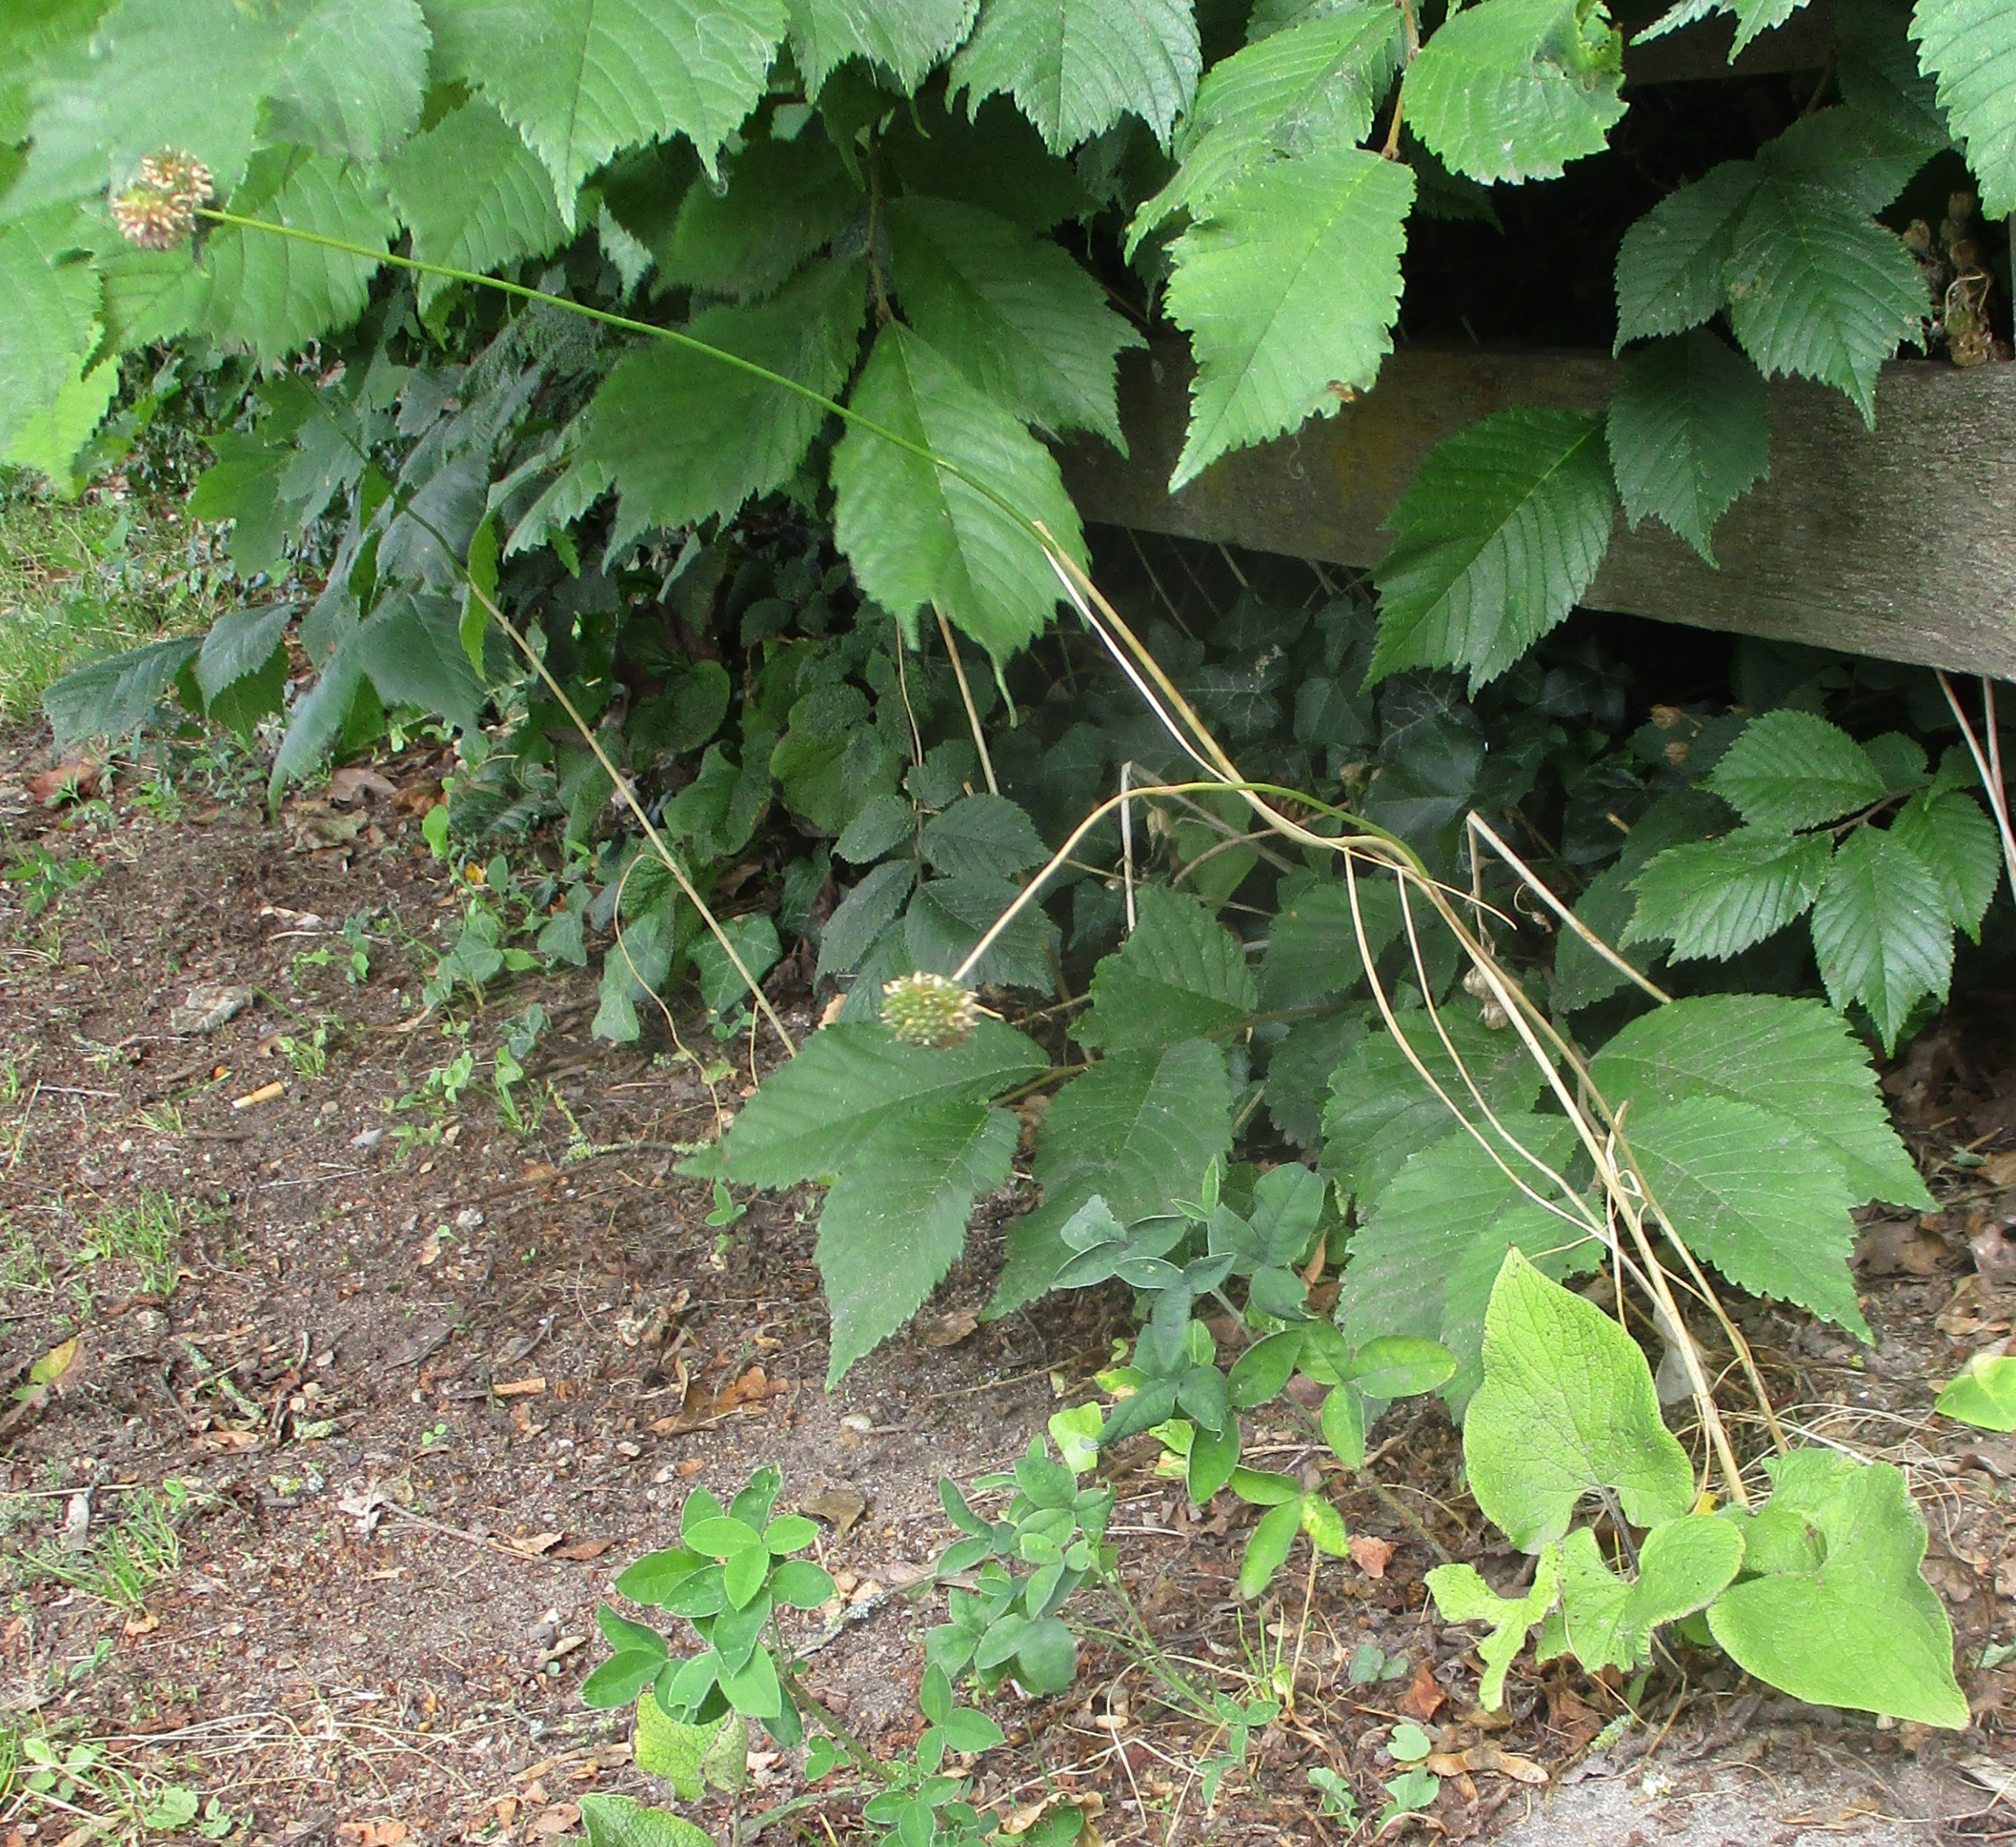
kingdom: Plantae
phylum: Tracheophyta
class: Liliopsida
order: Asparagales
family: Amaryllidaceae
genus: Allium
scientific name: Allium vineale
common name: Sand-løg
